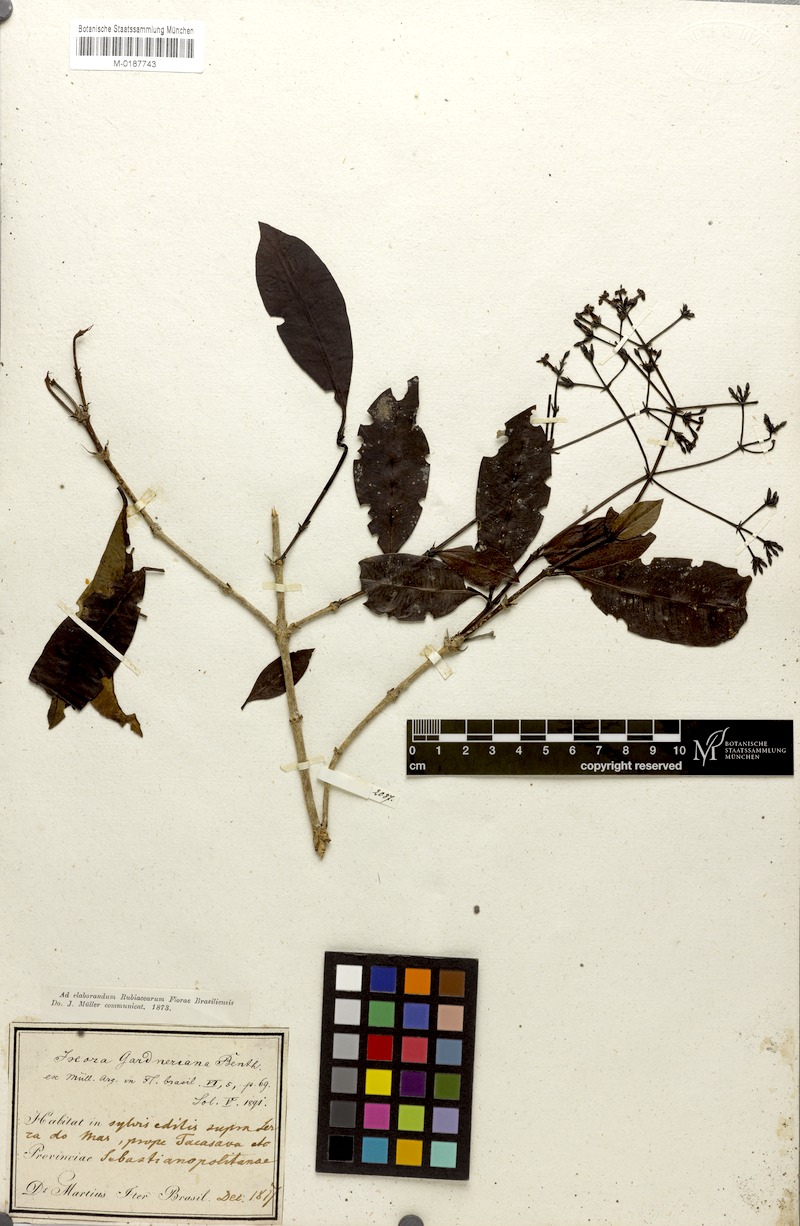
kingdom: Plantae
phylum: Tracheophyta
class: Magnoliopsida
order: Gentianales
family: Rubiaceae
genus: Ixora
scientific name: Ixora gardneriana
